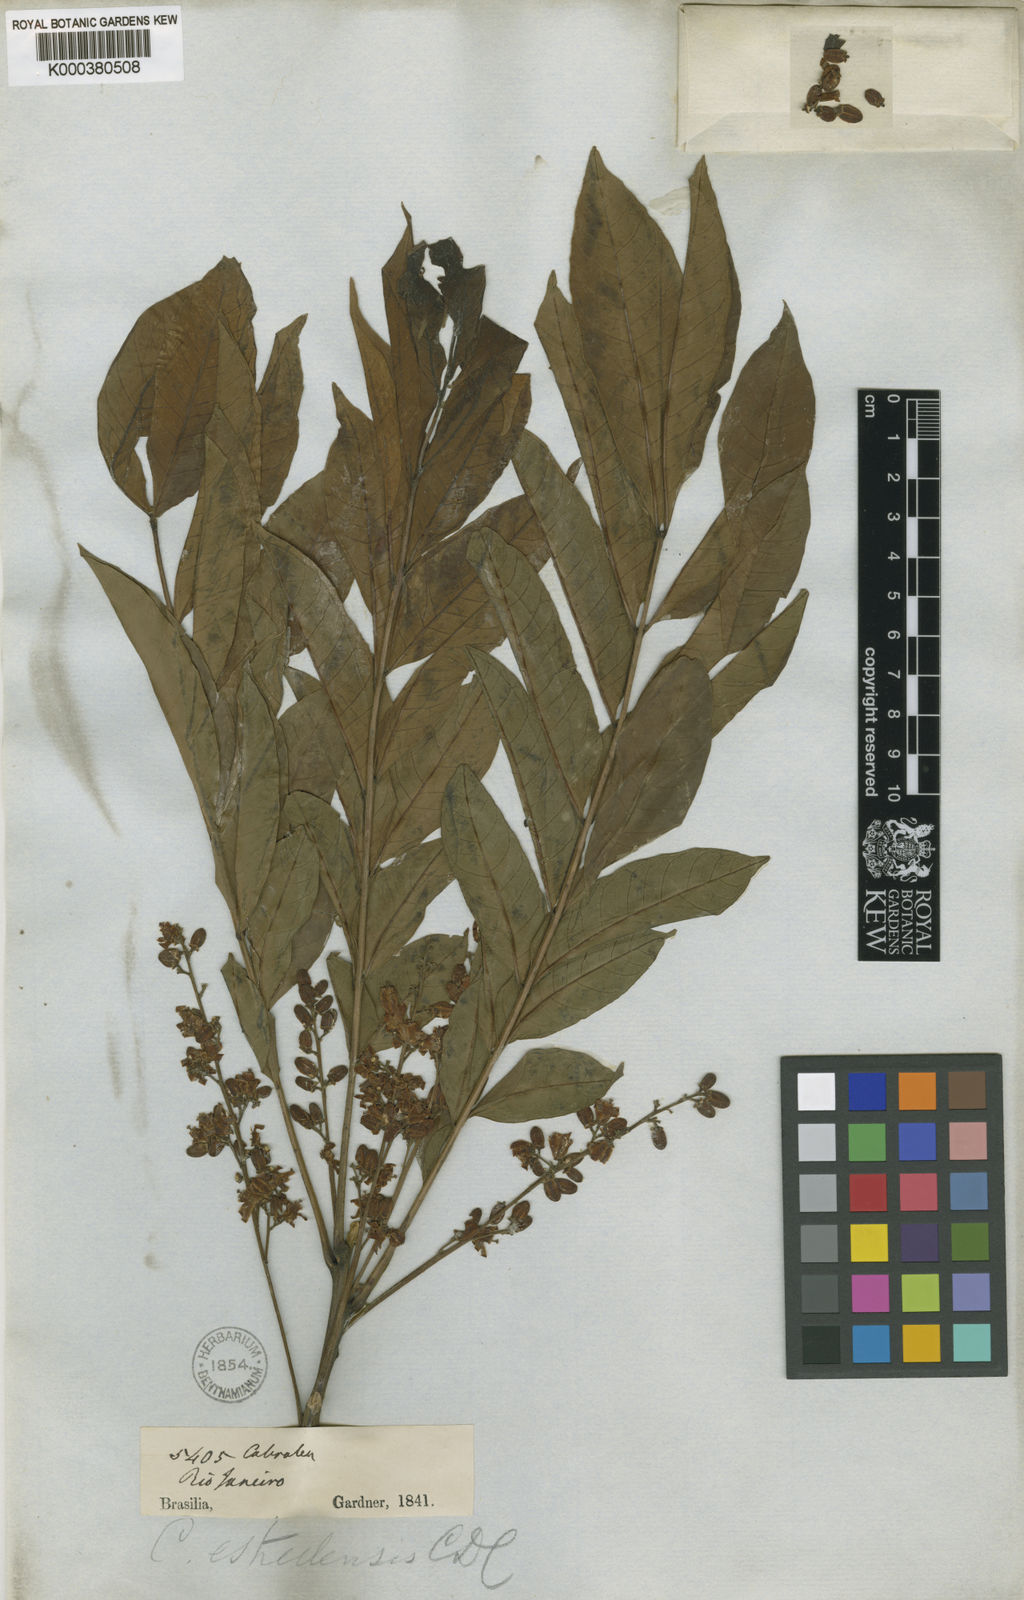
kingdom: Plantae
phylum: Tracheophyta
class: Magnoliopsida
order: Sapindales
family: Meliaceae
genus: Cabralea
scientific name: Cabralea canjerana
